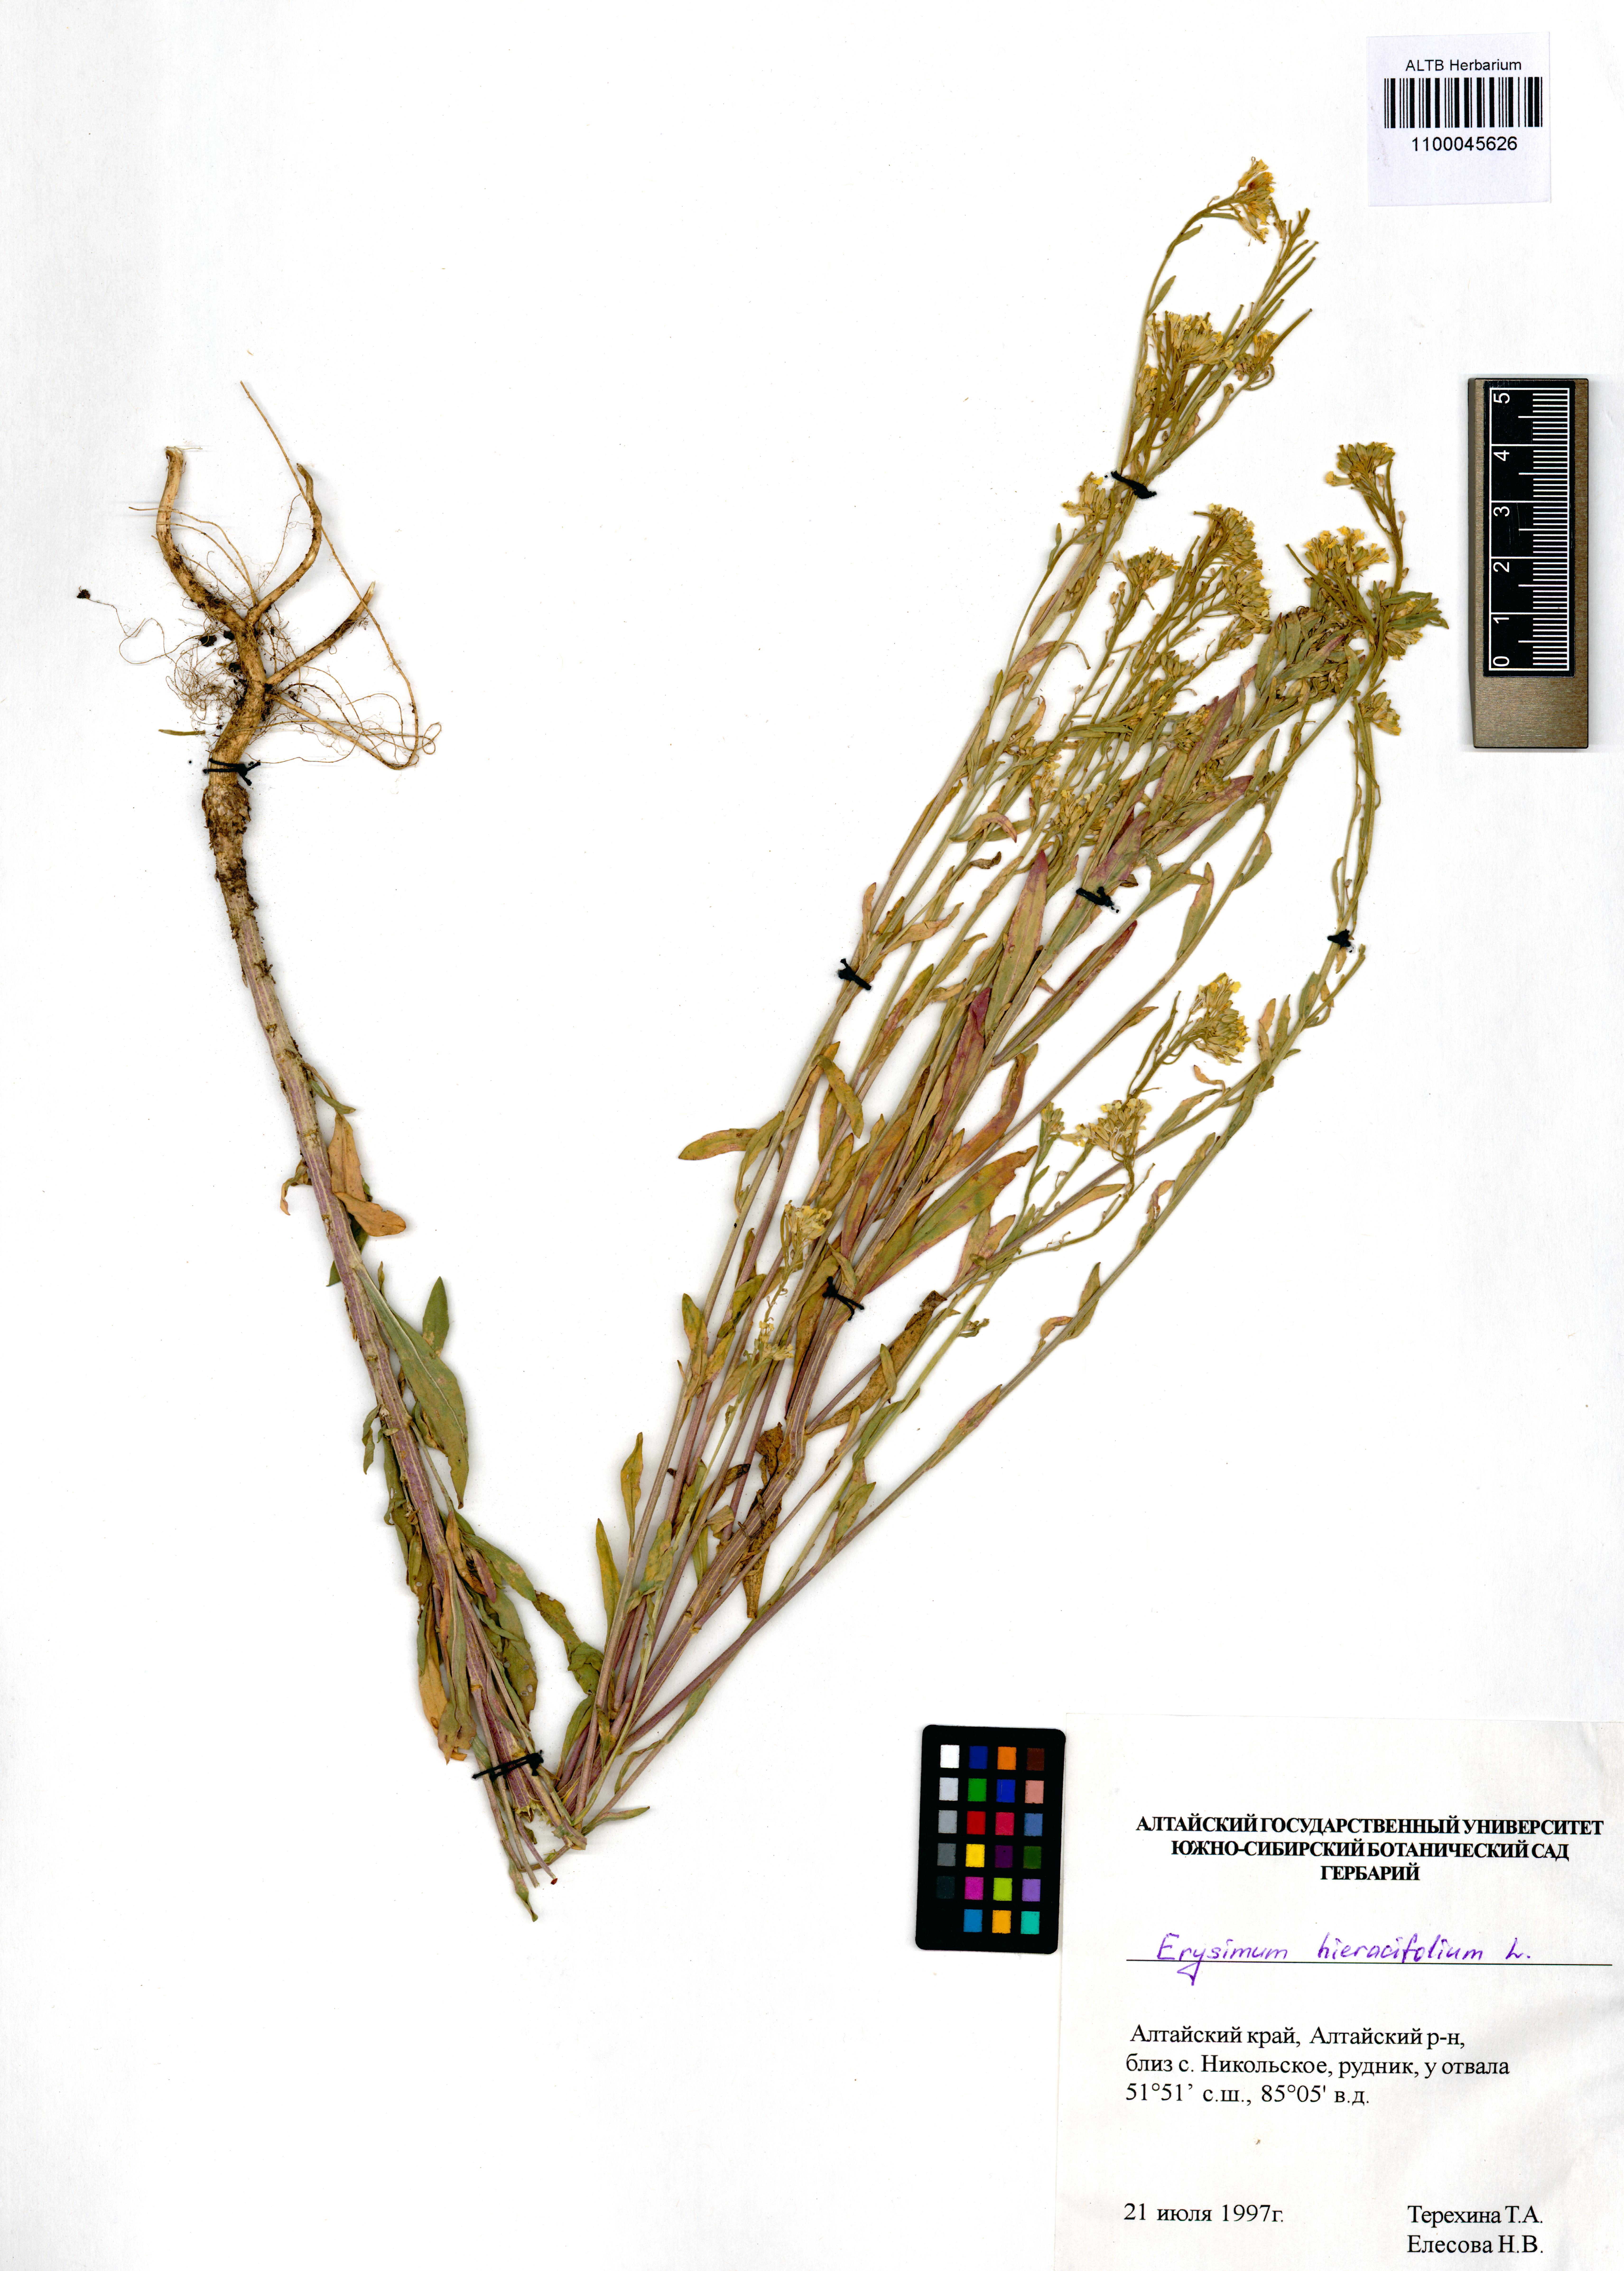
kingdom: Plantae
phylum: Tracheophyta
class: Magnoliopsida
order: Brassicales
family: Brassicaceae
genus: Erysimum
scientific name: Erysimum hieraciifolium
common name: European wallflower
